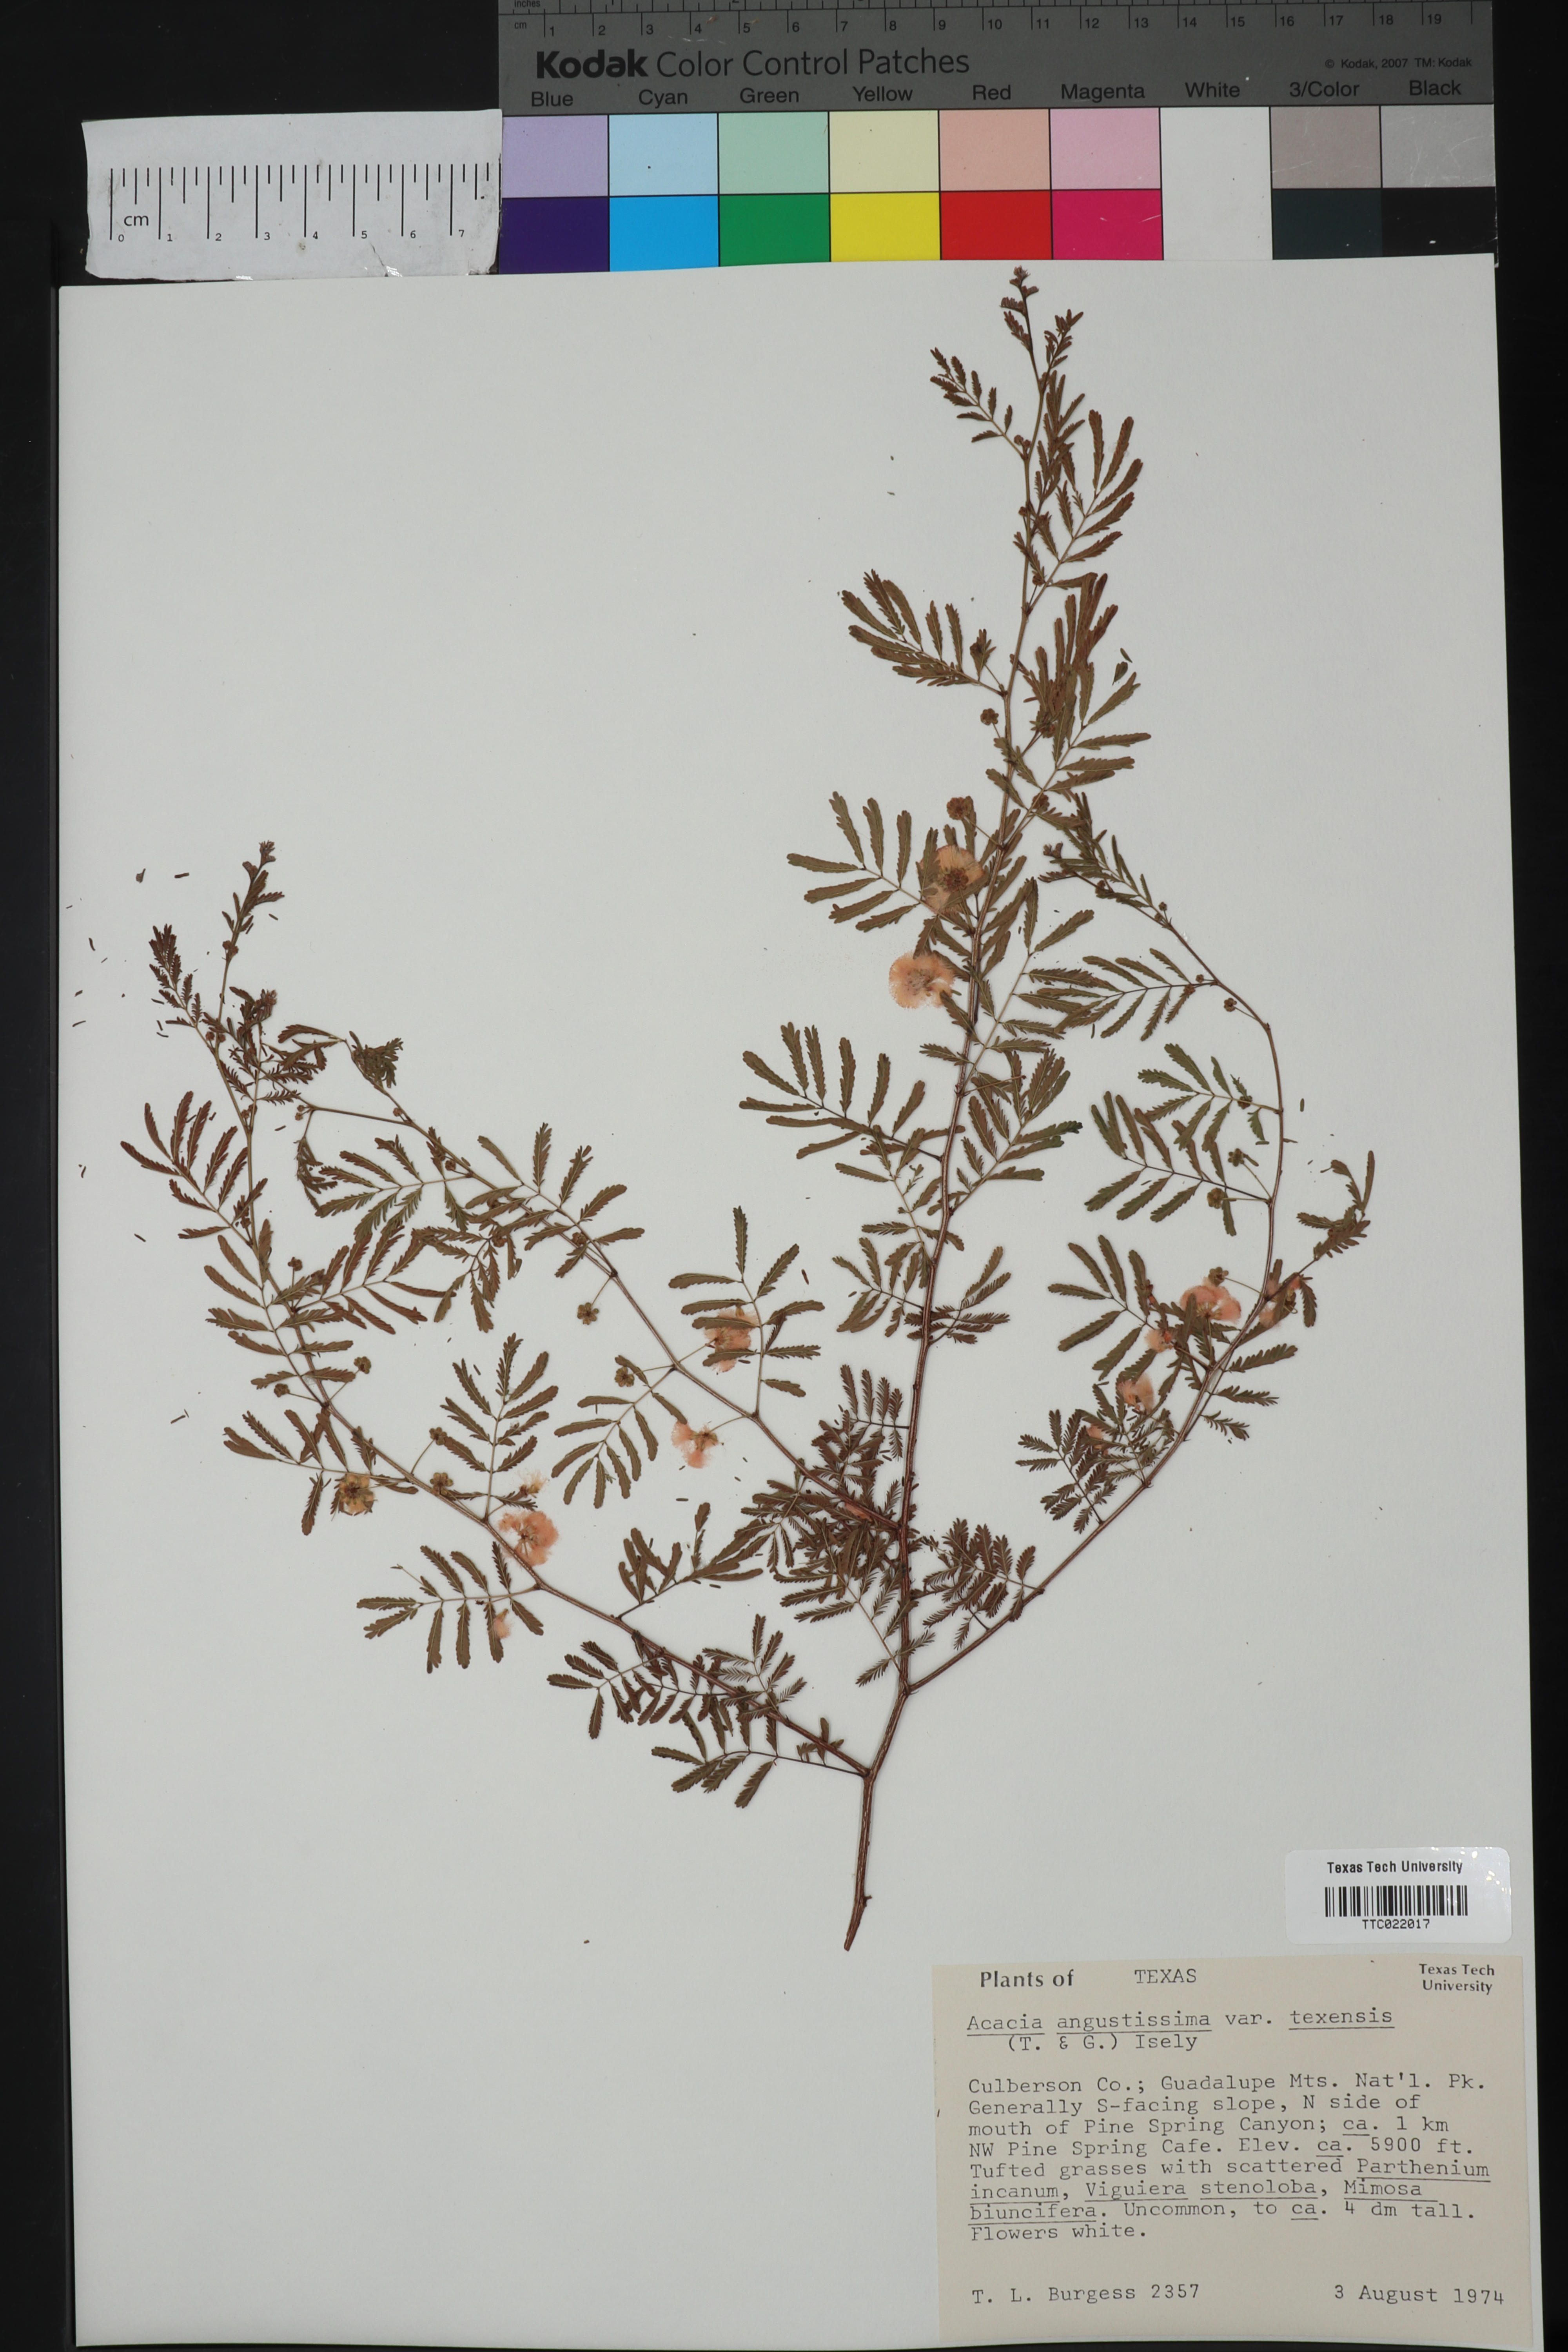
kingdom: Plantae
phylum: Tracheophyta
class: Magnoliopsida
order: Fabales
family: Fabaceae
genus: Acaciella
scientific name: Acaciella angustissima
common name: Prairie acacia
